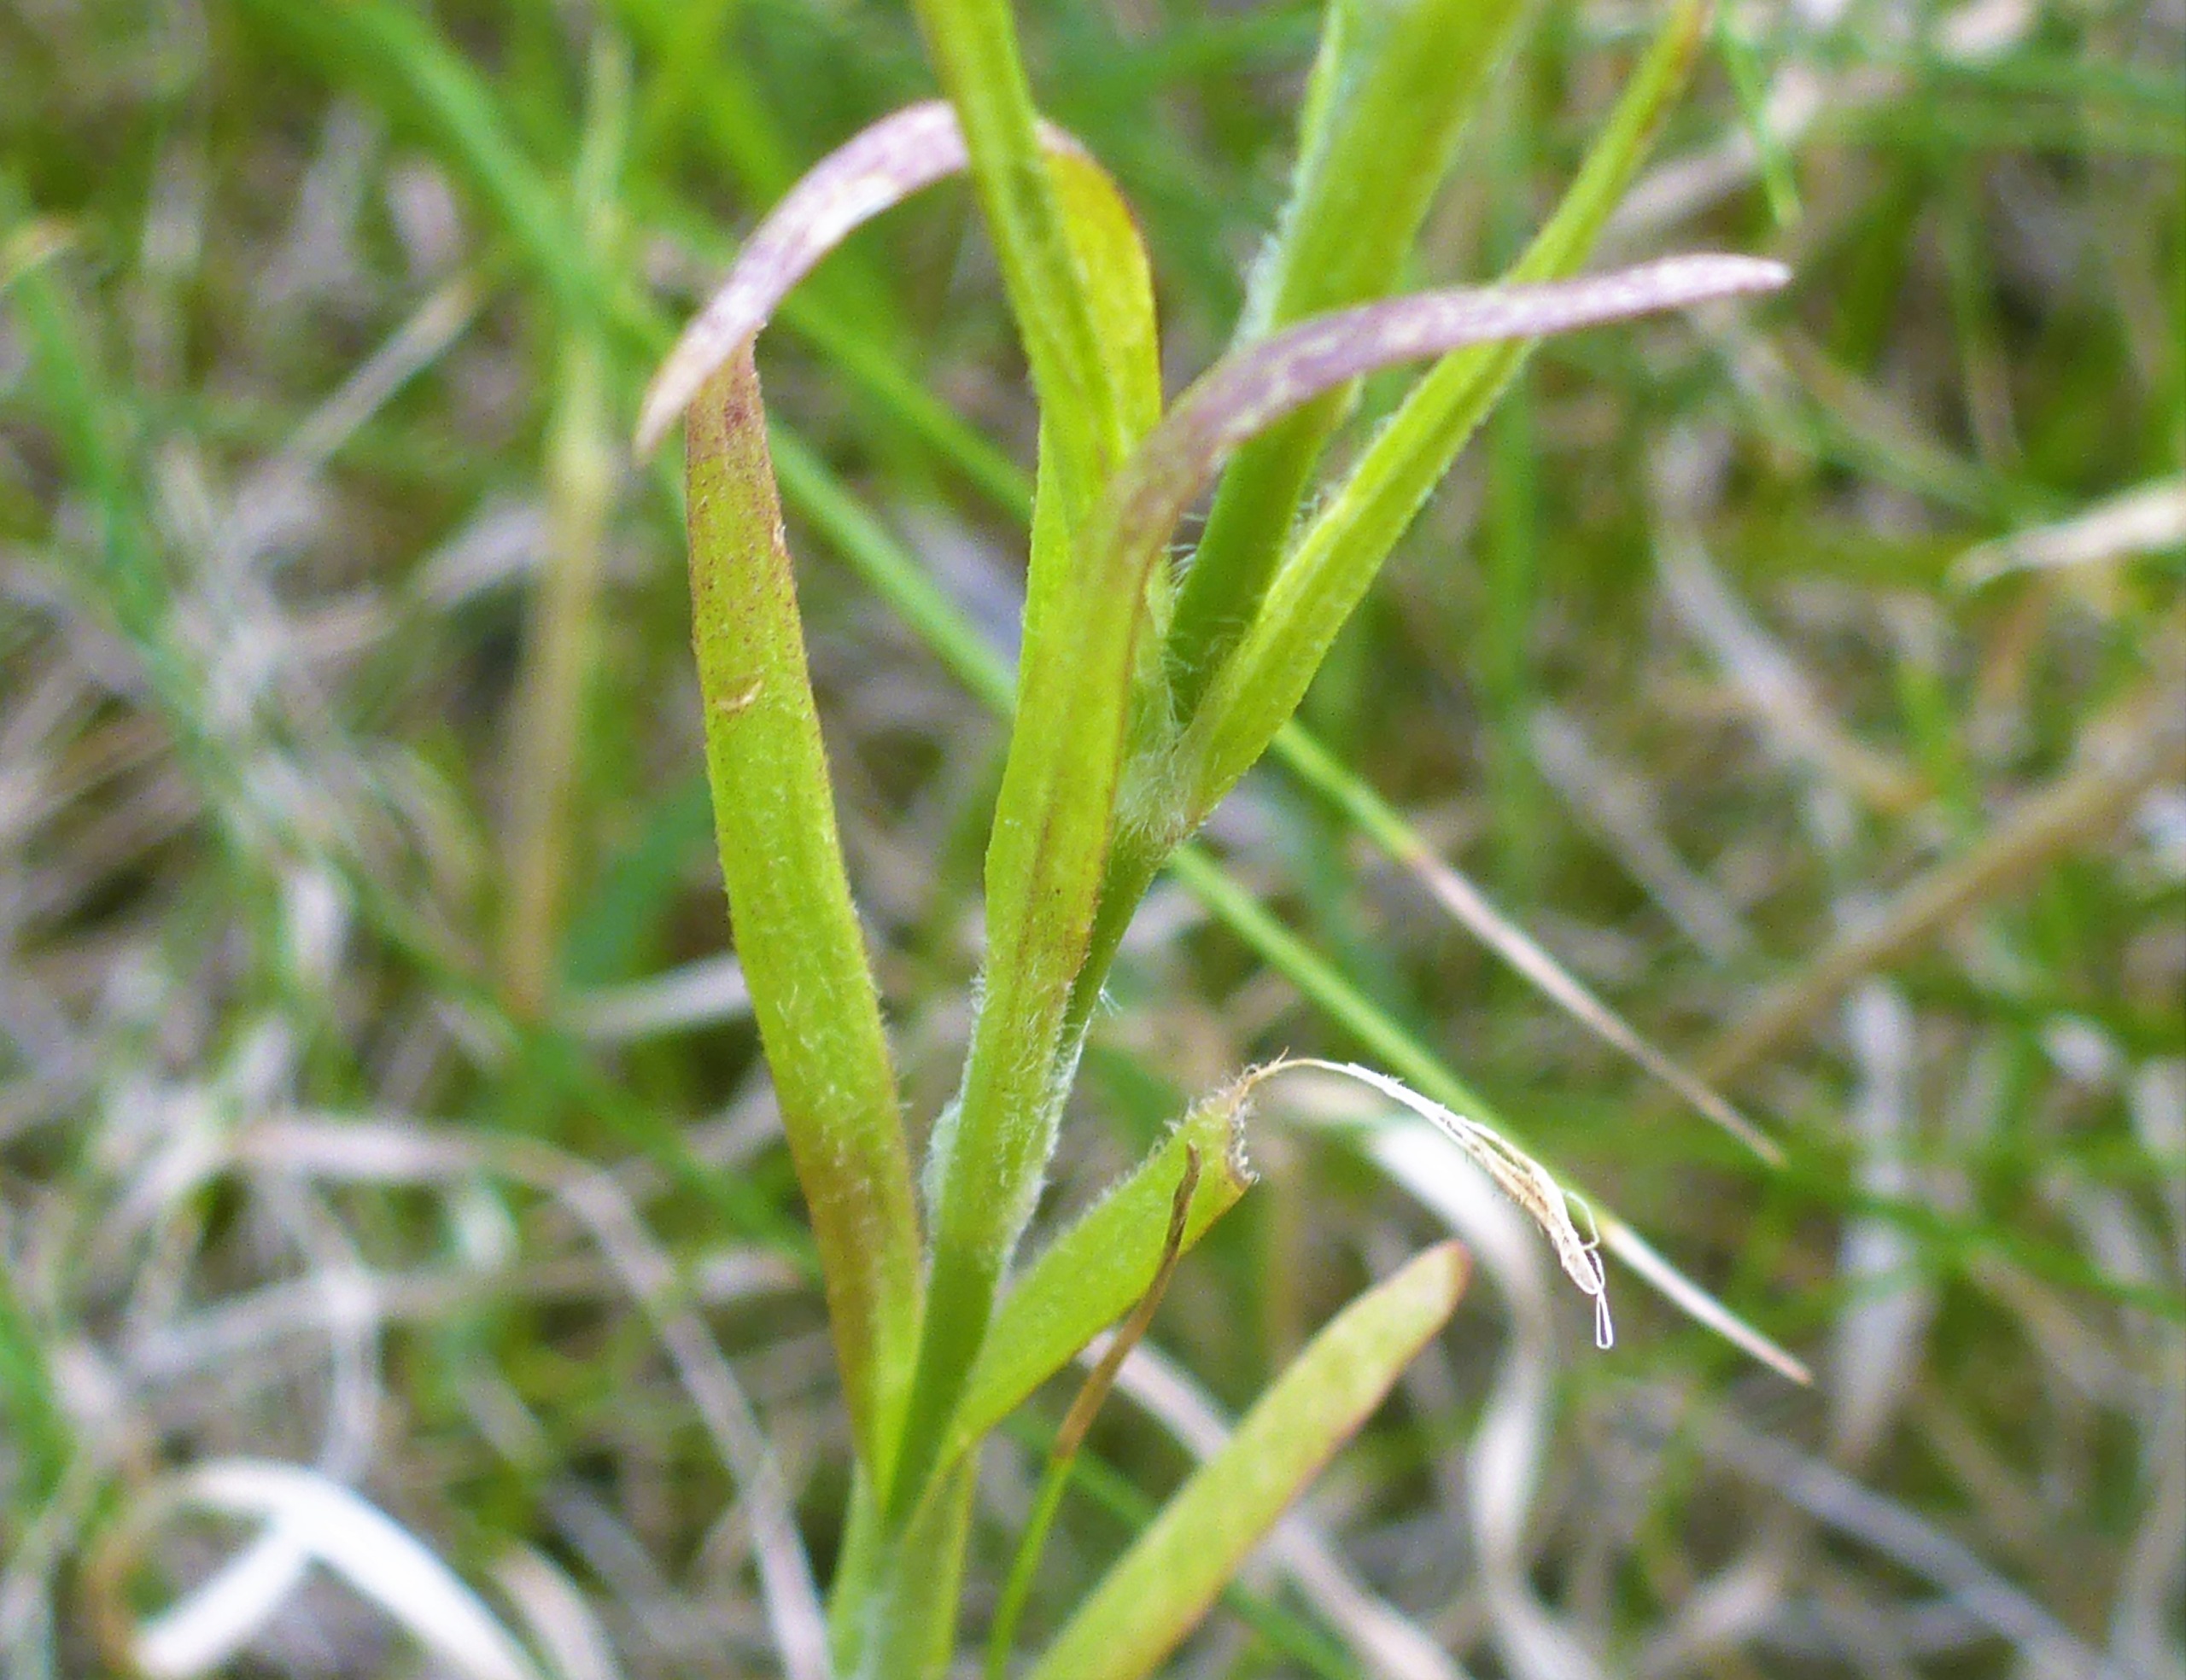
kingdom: Plantae
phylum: Tracheophyta
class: Magnoliopsida
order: Caryophyllales
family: Caryophyllaceae
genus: Dianthus
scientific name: Dianthus armeria
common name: Kost-nellike
